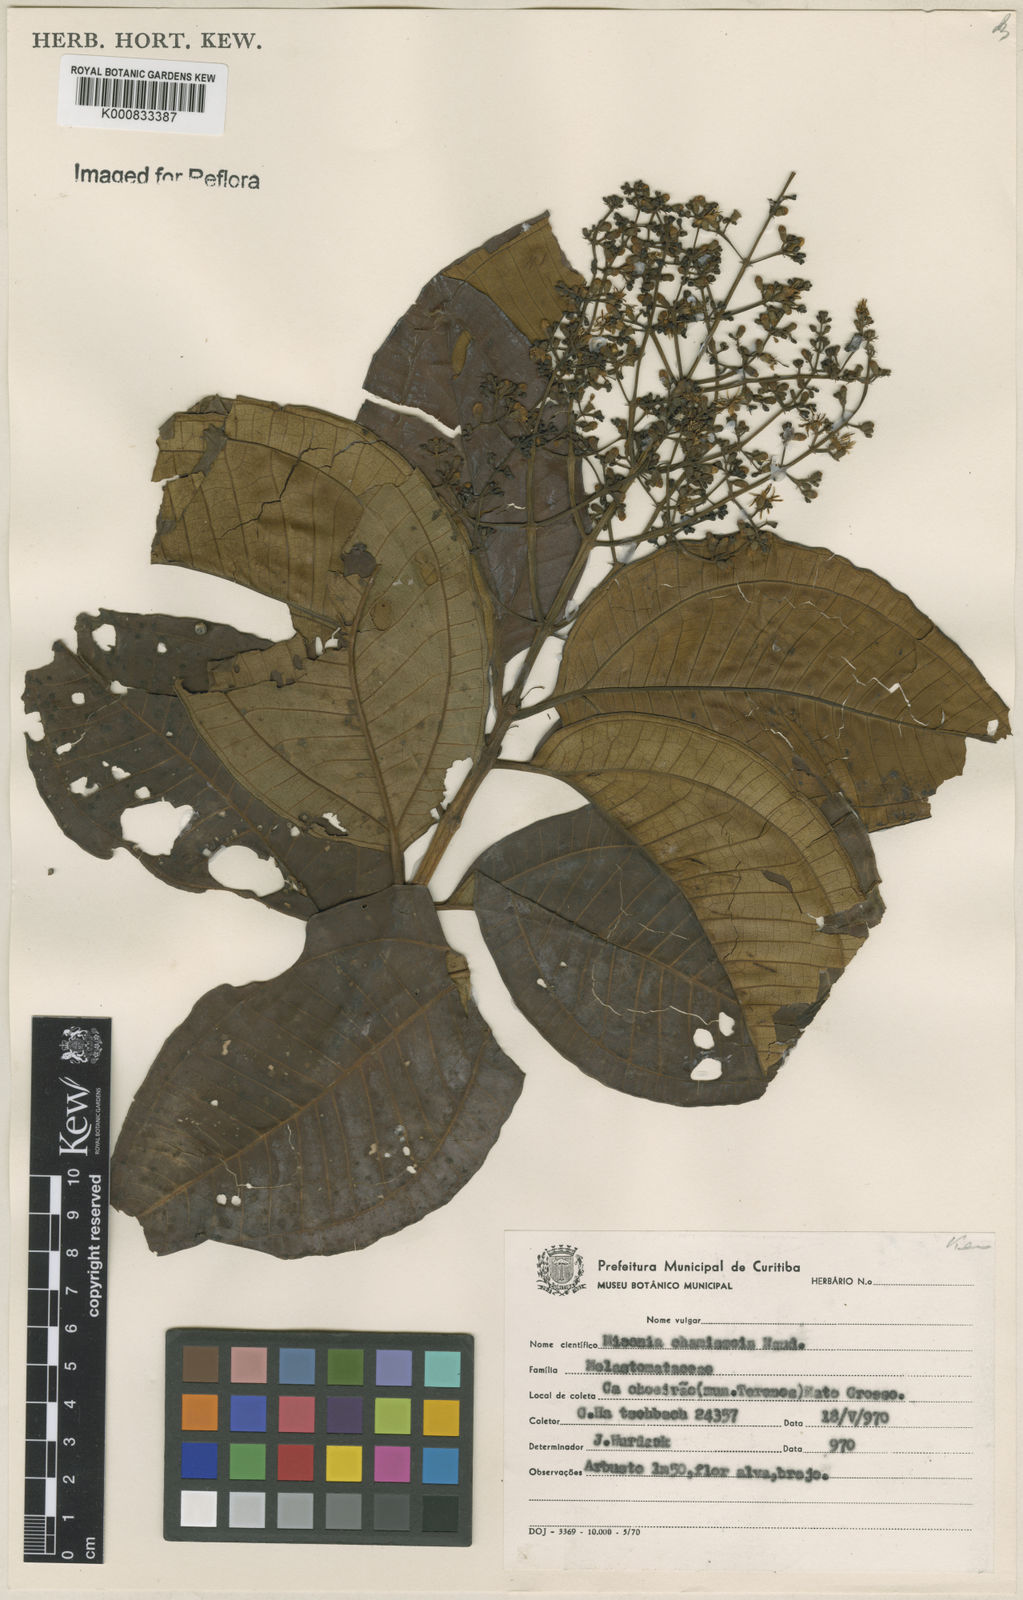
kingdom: Plantae
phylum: Tracheophyta
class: Magnoliopsida
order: Myrtales
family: Melastomataceae
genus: Miconia
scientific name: Miconia chamissois
